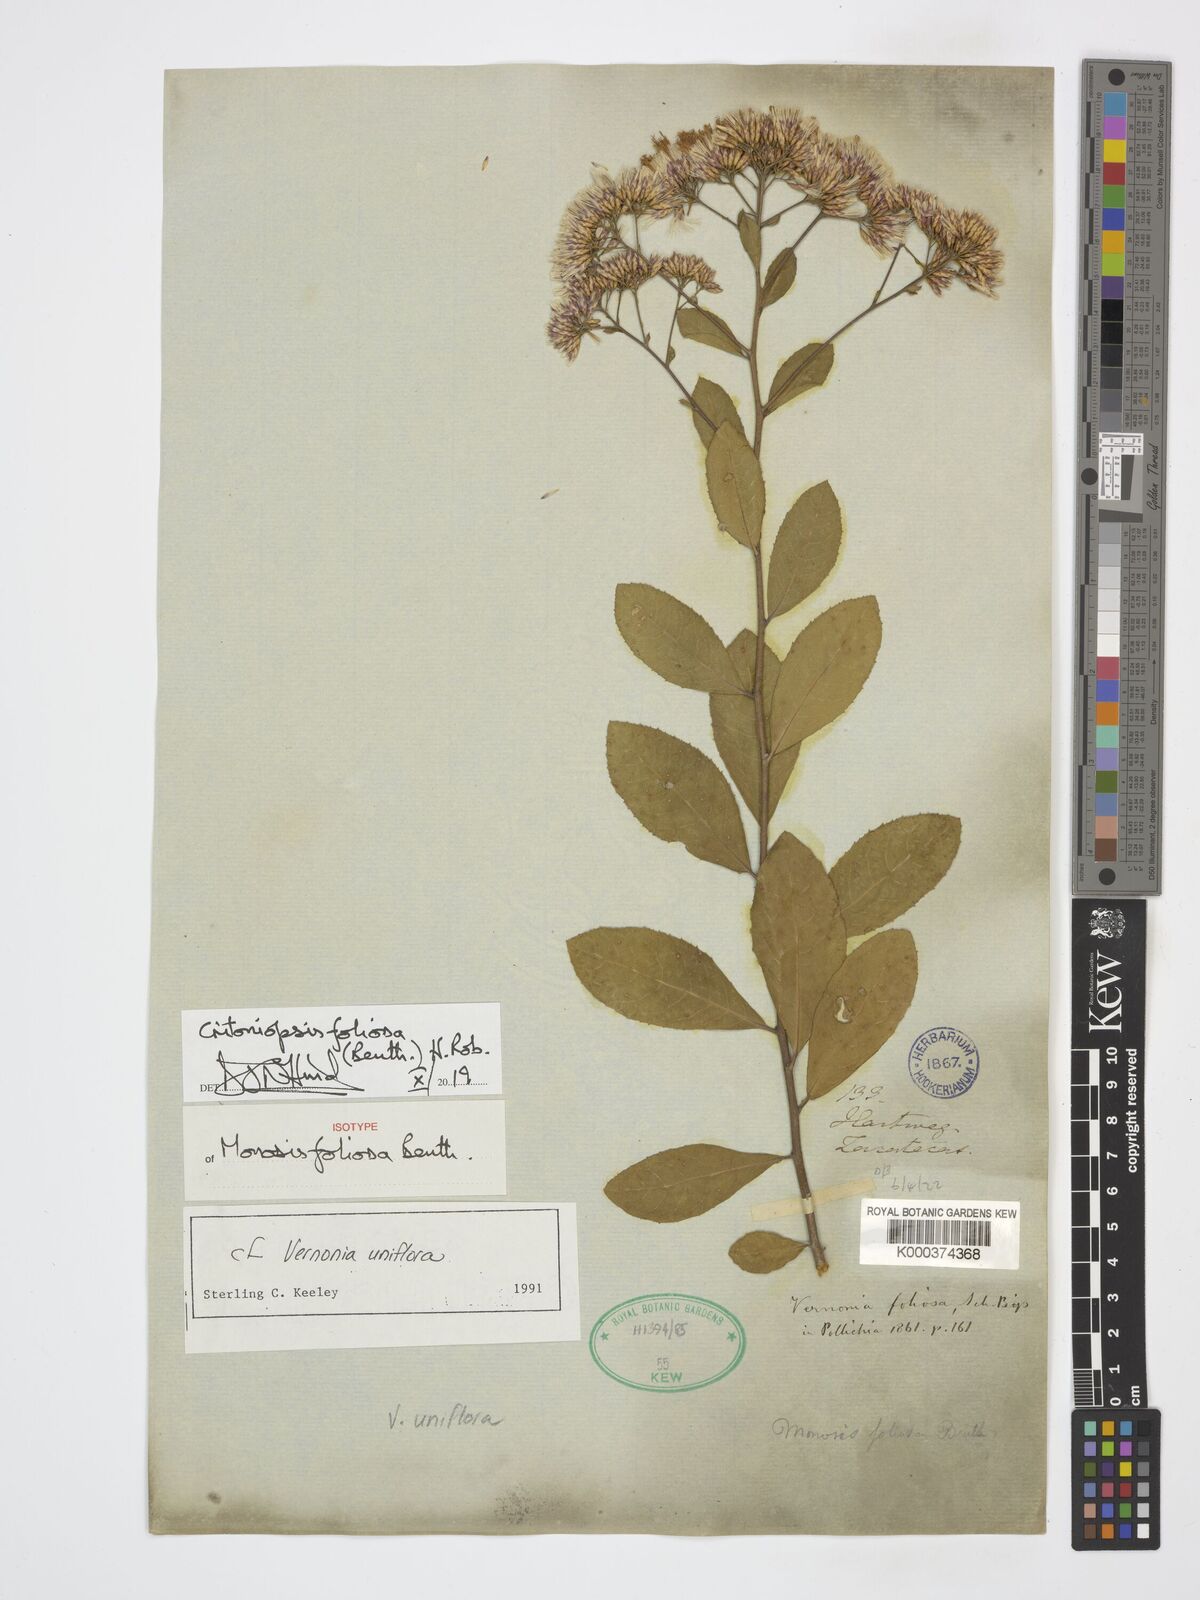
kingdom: Plantae
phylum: Tracheophyta
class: Magnoliopsida
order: Asterales
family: Asteraceae
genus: Eremosis
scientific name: Eremosis foliosa
